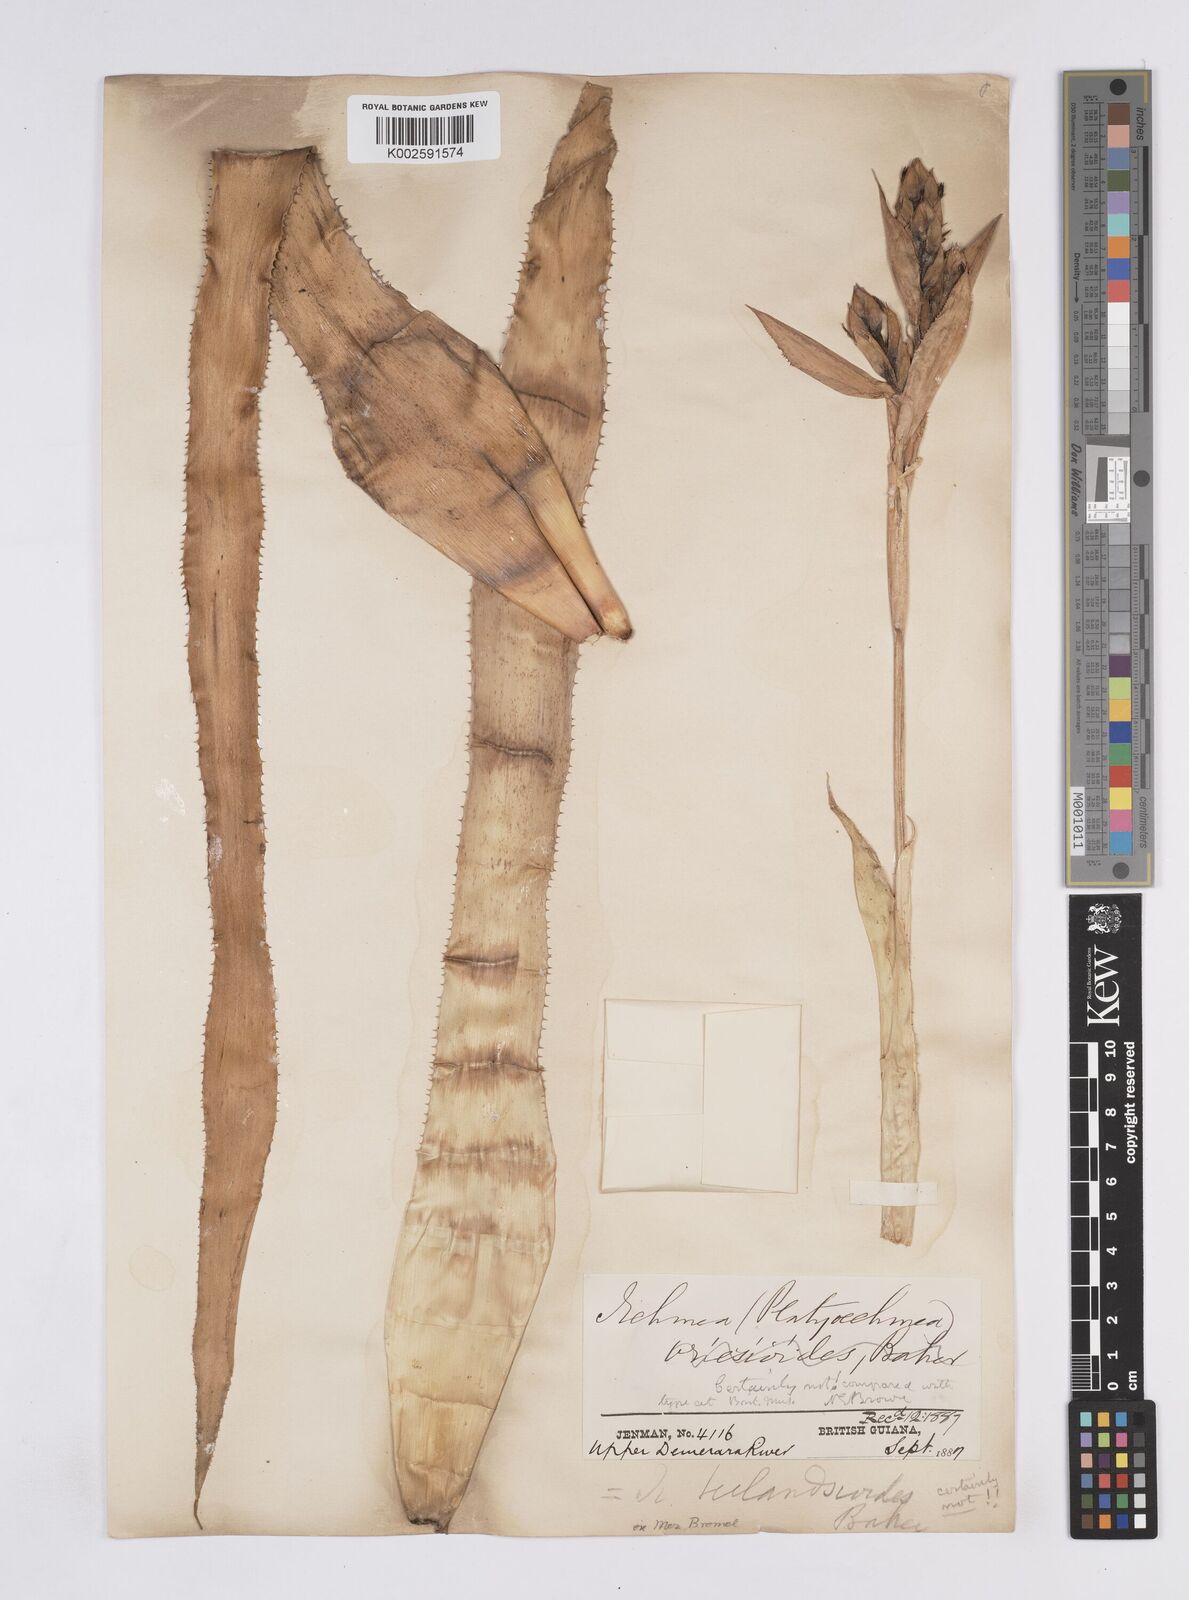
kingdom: Plantae
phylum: Tracheophyta
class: Liliopsida
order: Poales
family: Bromeliaceae
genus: Aechmea
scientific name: Aechmea tillandsioides
